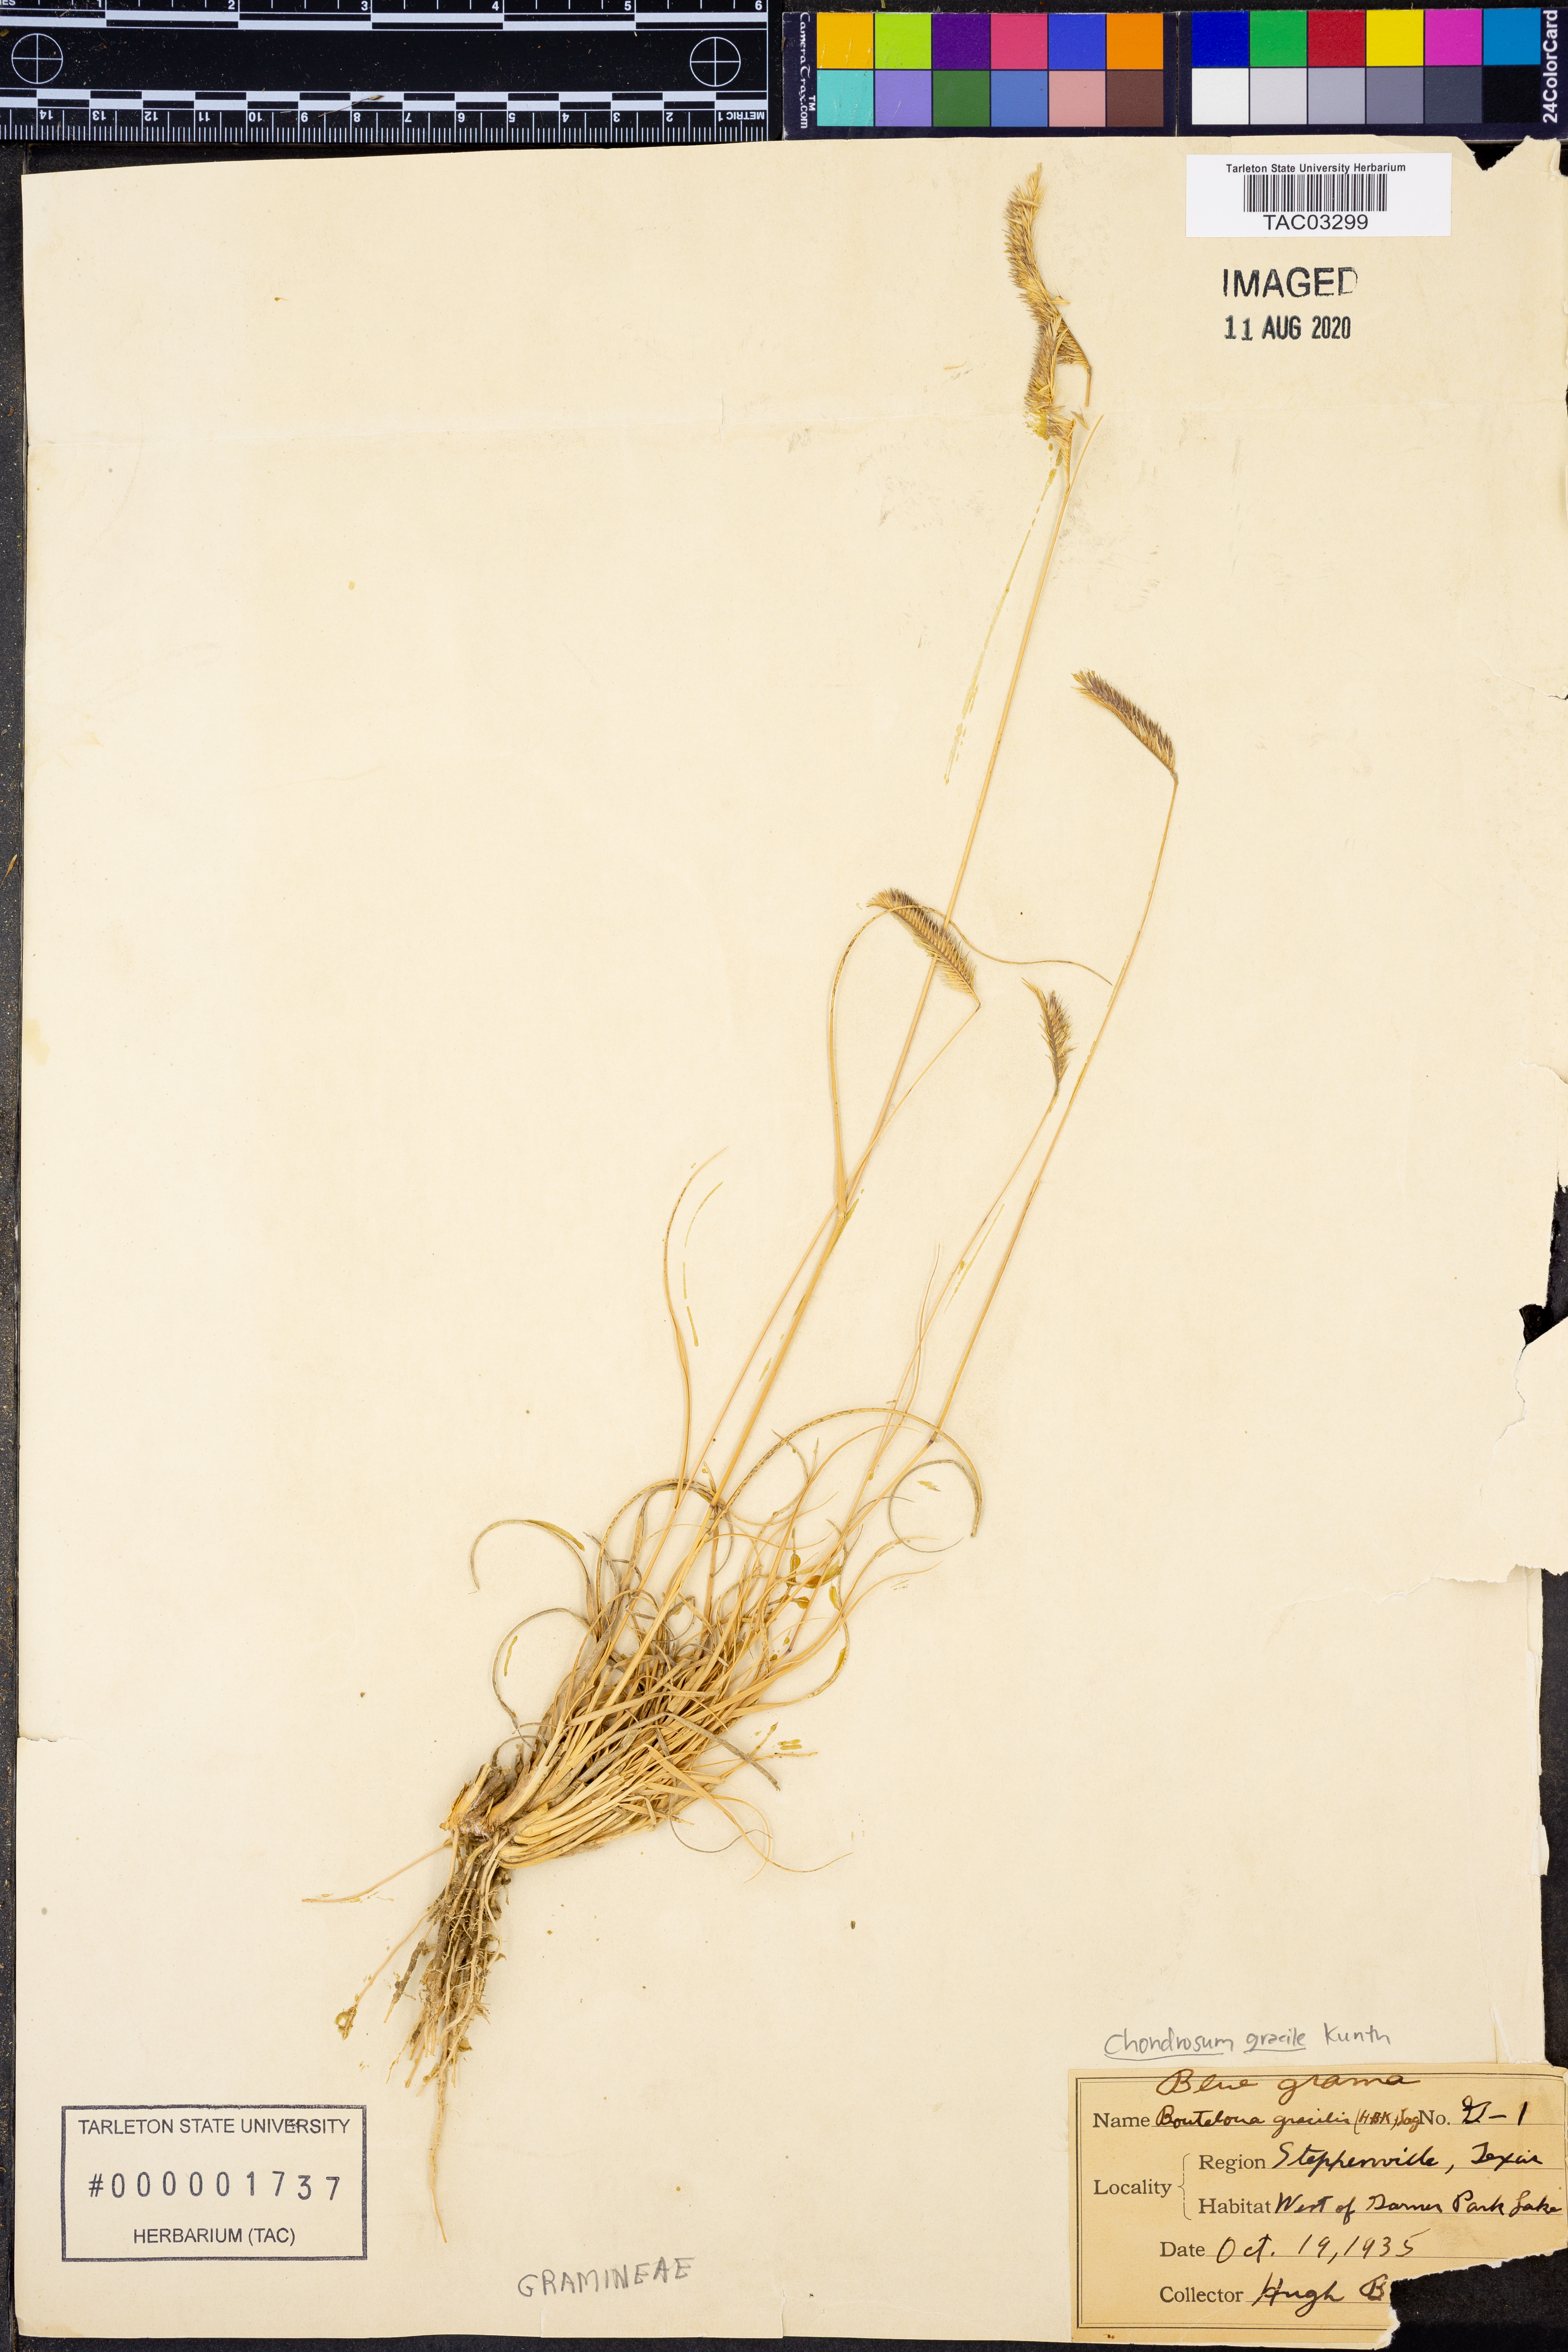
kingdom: Plantae
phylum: Tracheophyta
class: Liliopsida
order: Poales
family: Poaceae
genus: Bouteloua
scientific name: Bouteloua gracilis
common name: Blue grama
